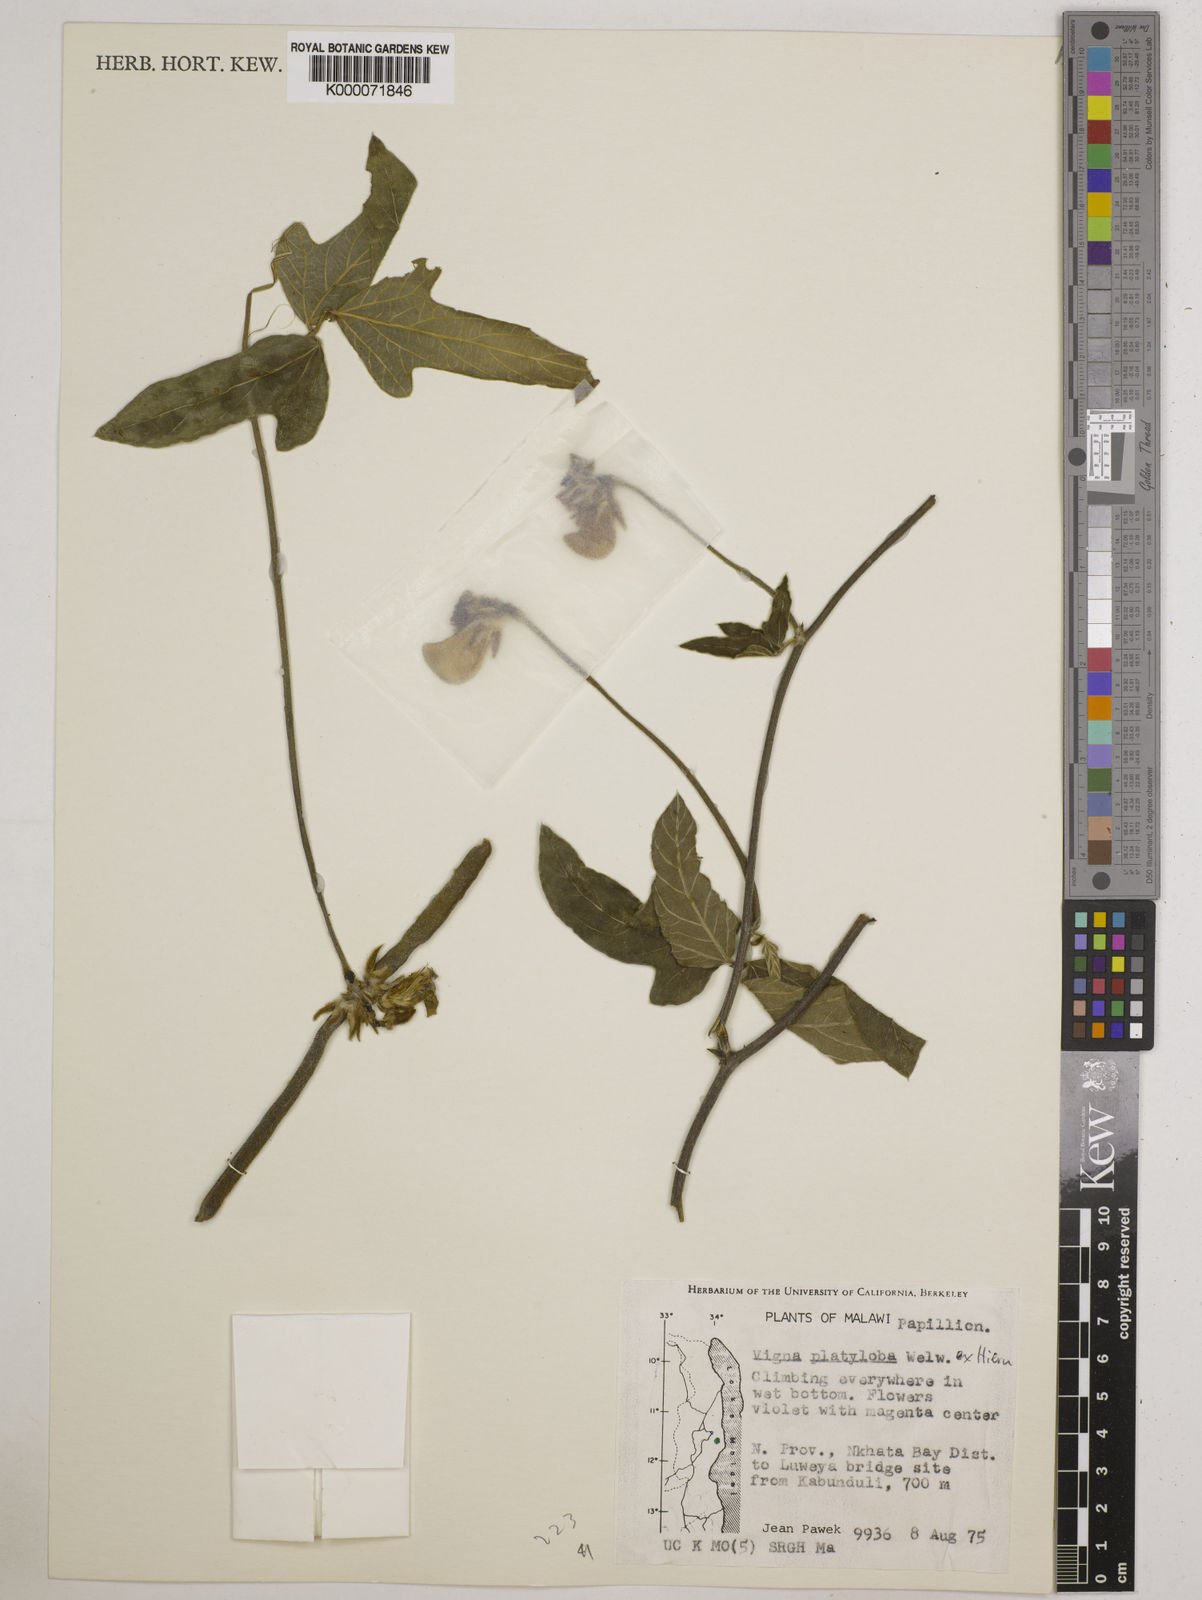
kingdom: Plantae
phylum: Tracheophyta
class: Magnoliopsida
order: Fabales
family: Fabaceae
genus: Vigna
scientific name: Vigna platyloba
